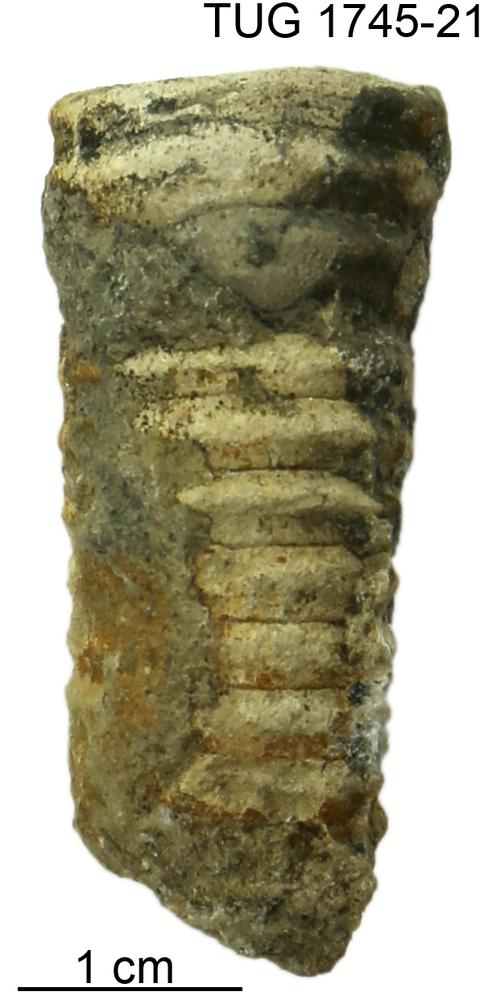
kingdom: Animalia
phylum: Mollusca
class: Cephalopoda
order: Nautilida
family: Nautilidae
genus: Dawsonoceras
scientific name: Dawsonoceras
